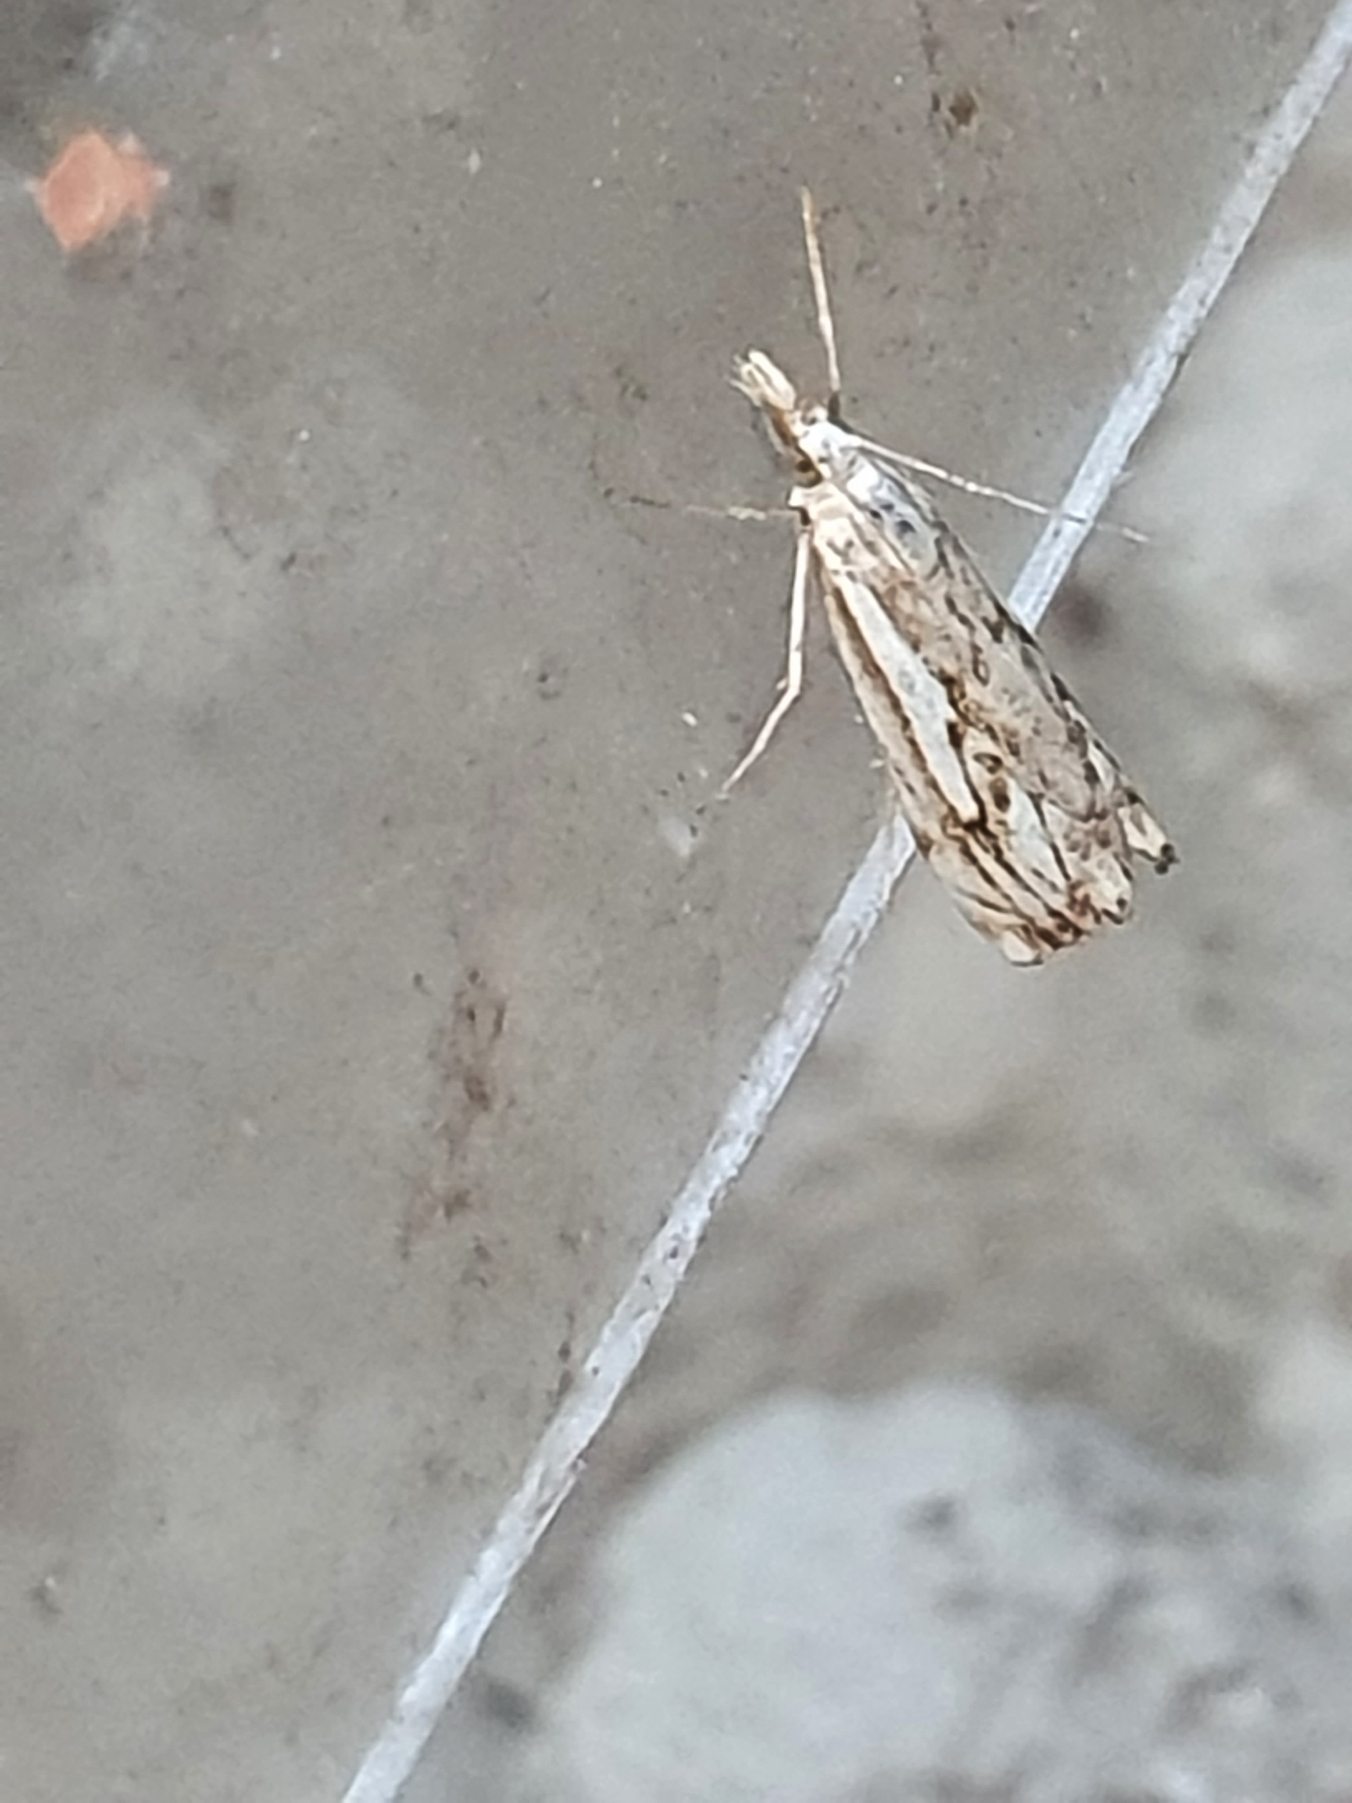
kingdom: Animalia
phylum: Arthropoda
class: Insecta
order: Lepidoptera
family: Crambidae
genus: Catoptria
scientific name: Catoptria falsella
